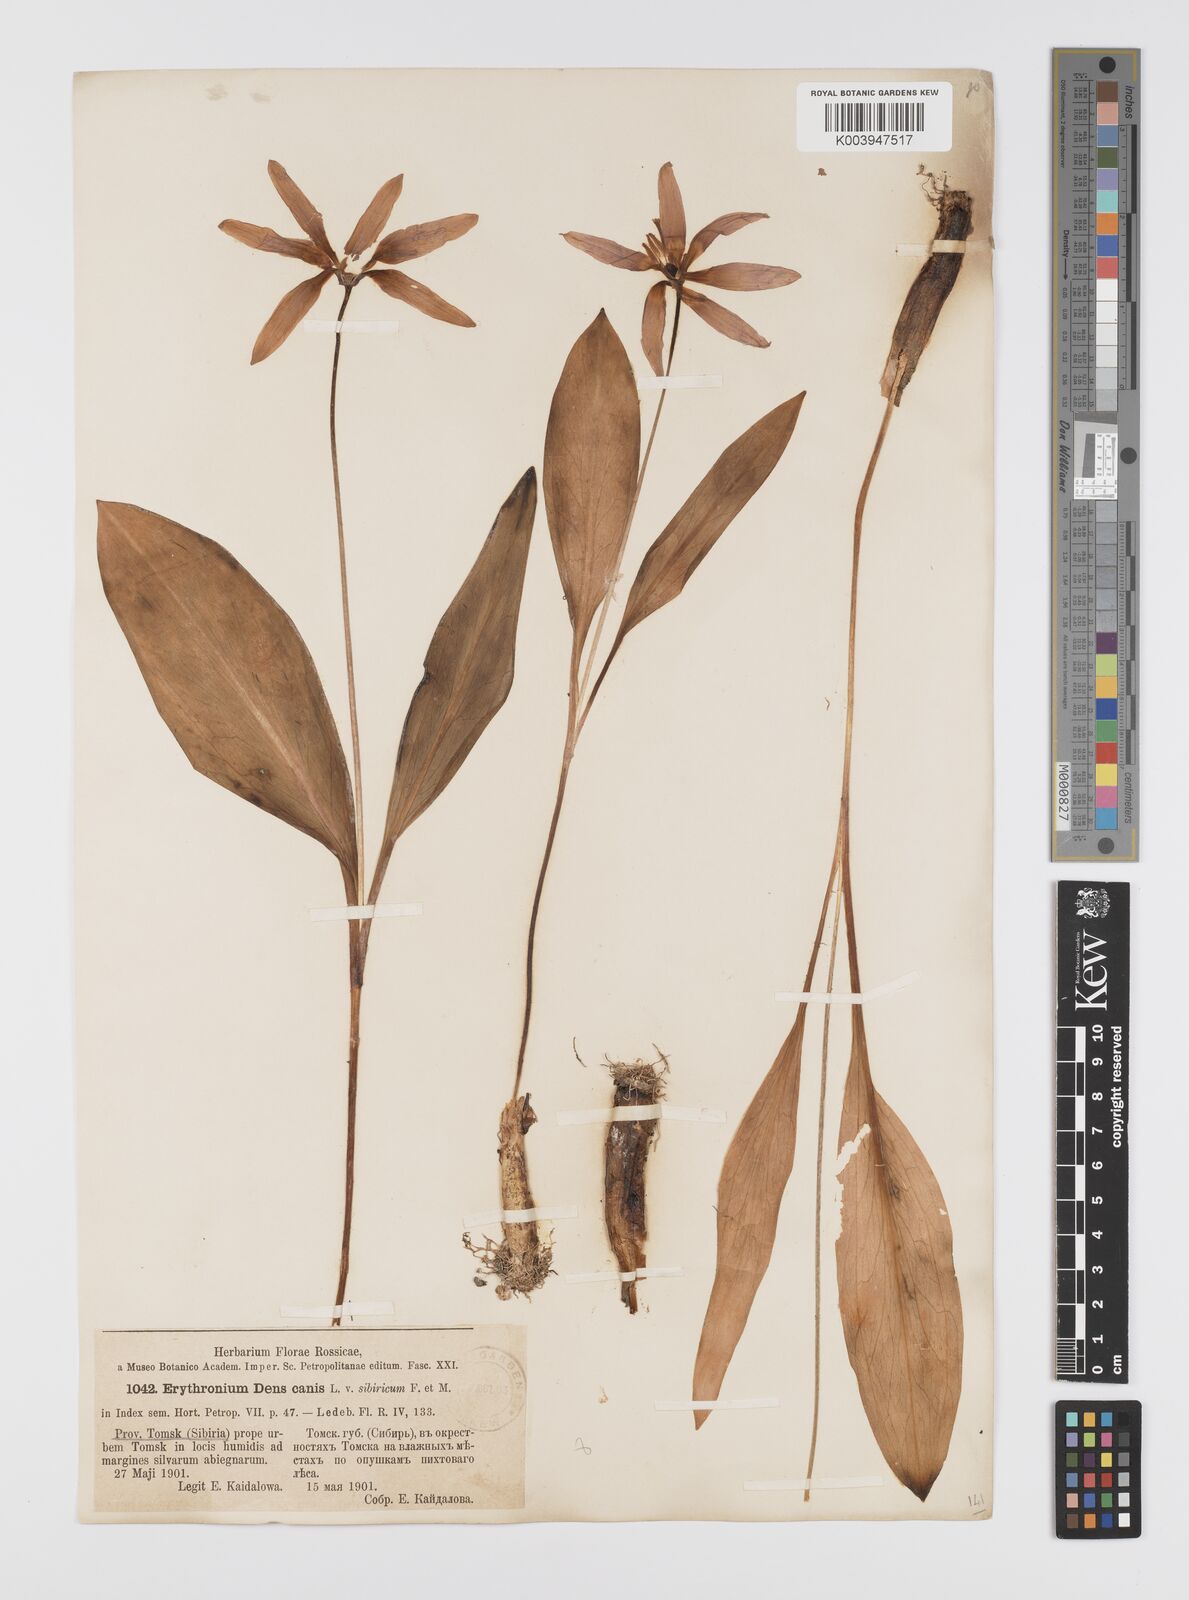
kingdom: Plantae
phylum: Tracheophyta
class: Liliopsida
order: Liliales
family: Liliaceae
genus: Erythronium
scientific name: Erythronium dens-canis
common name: Dog's-tooth-violet
